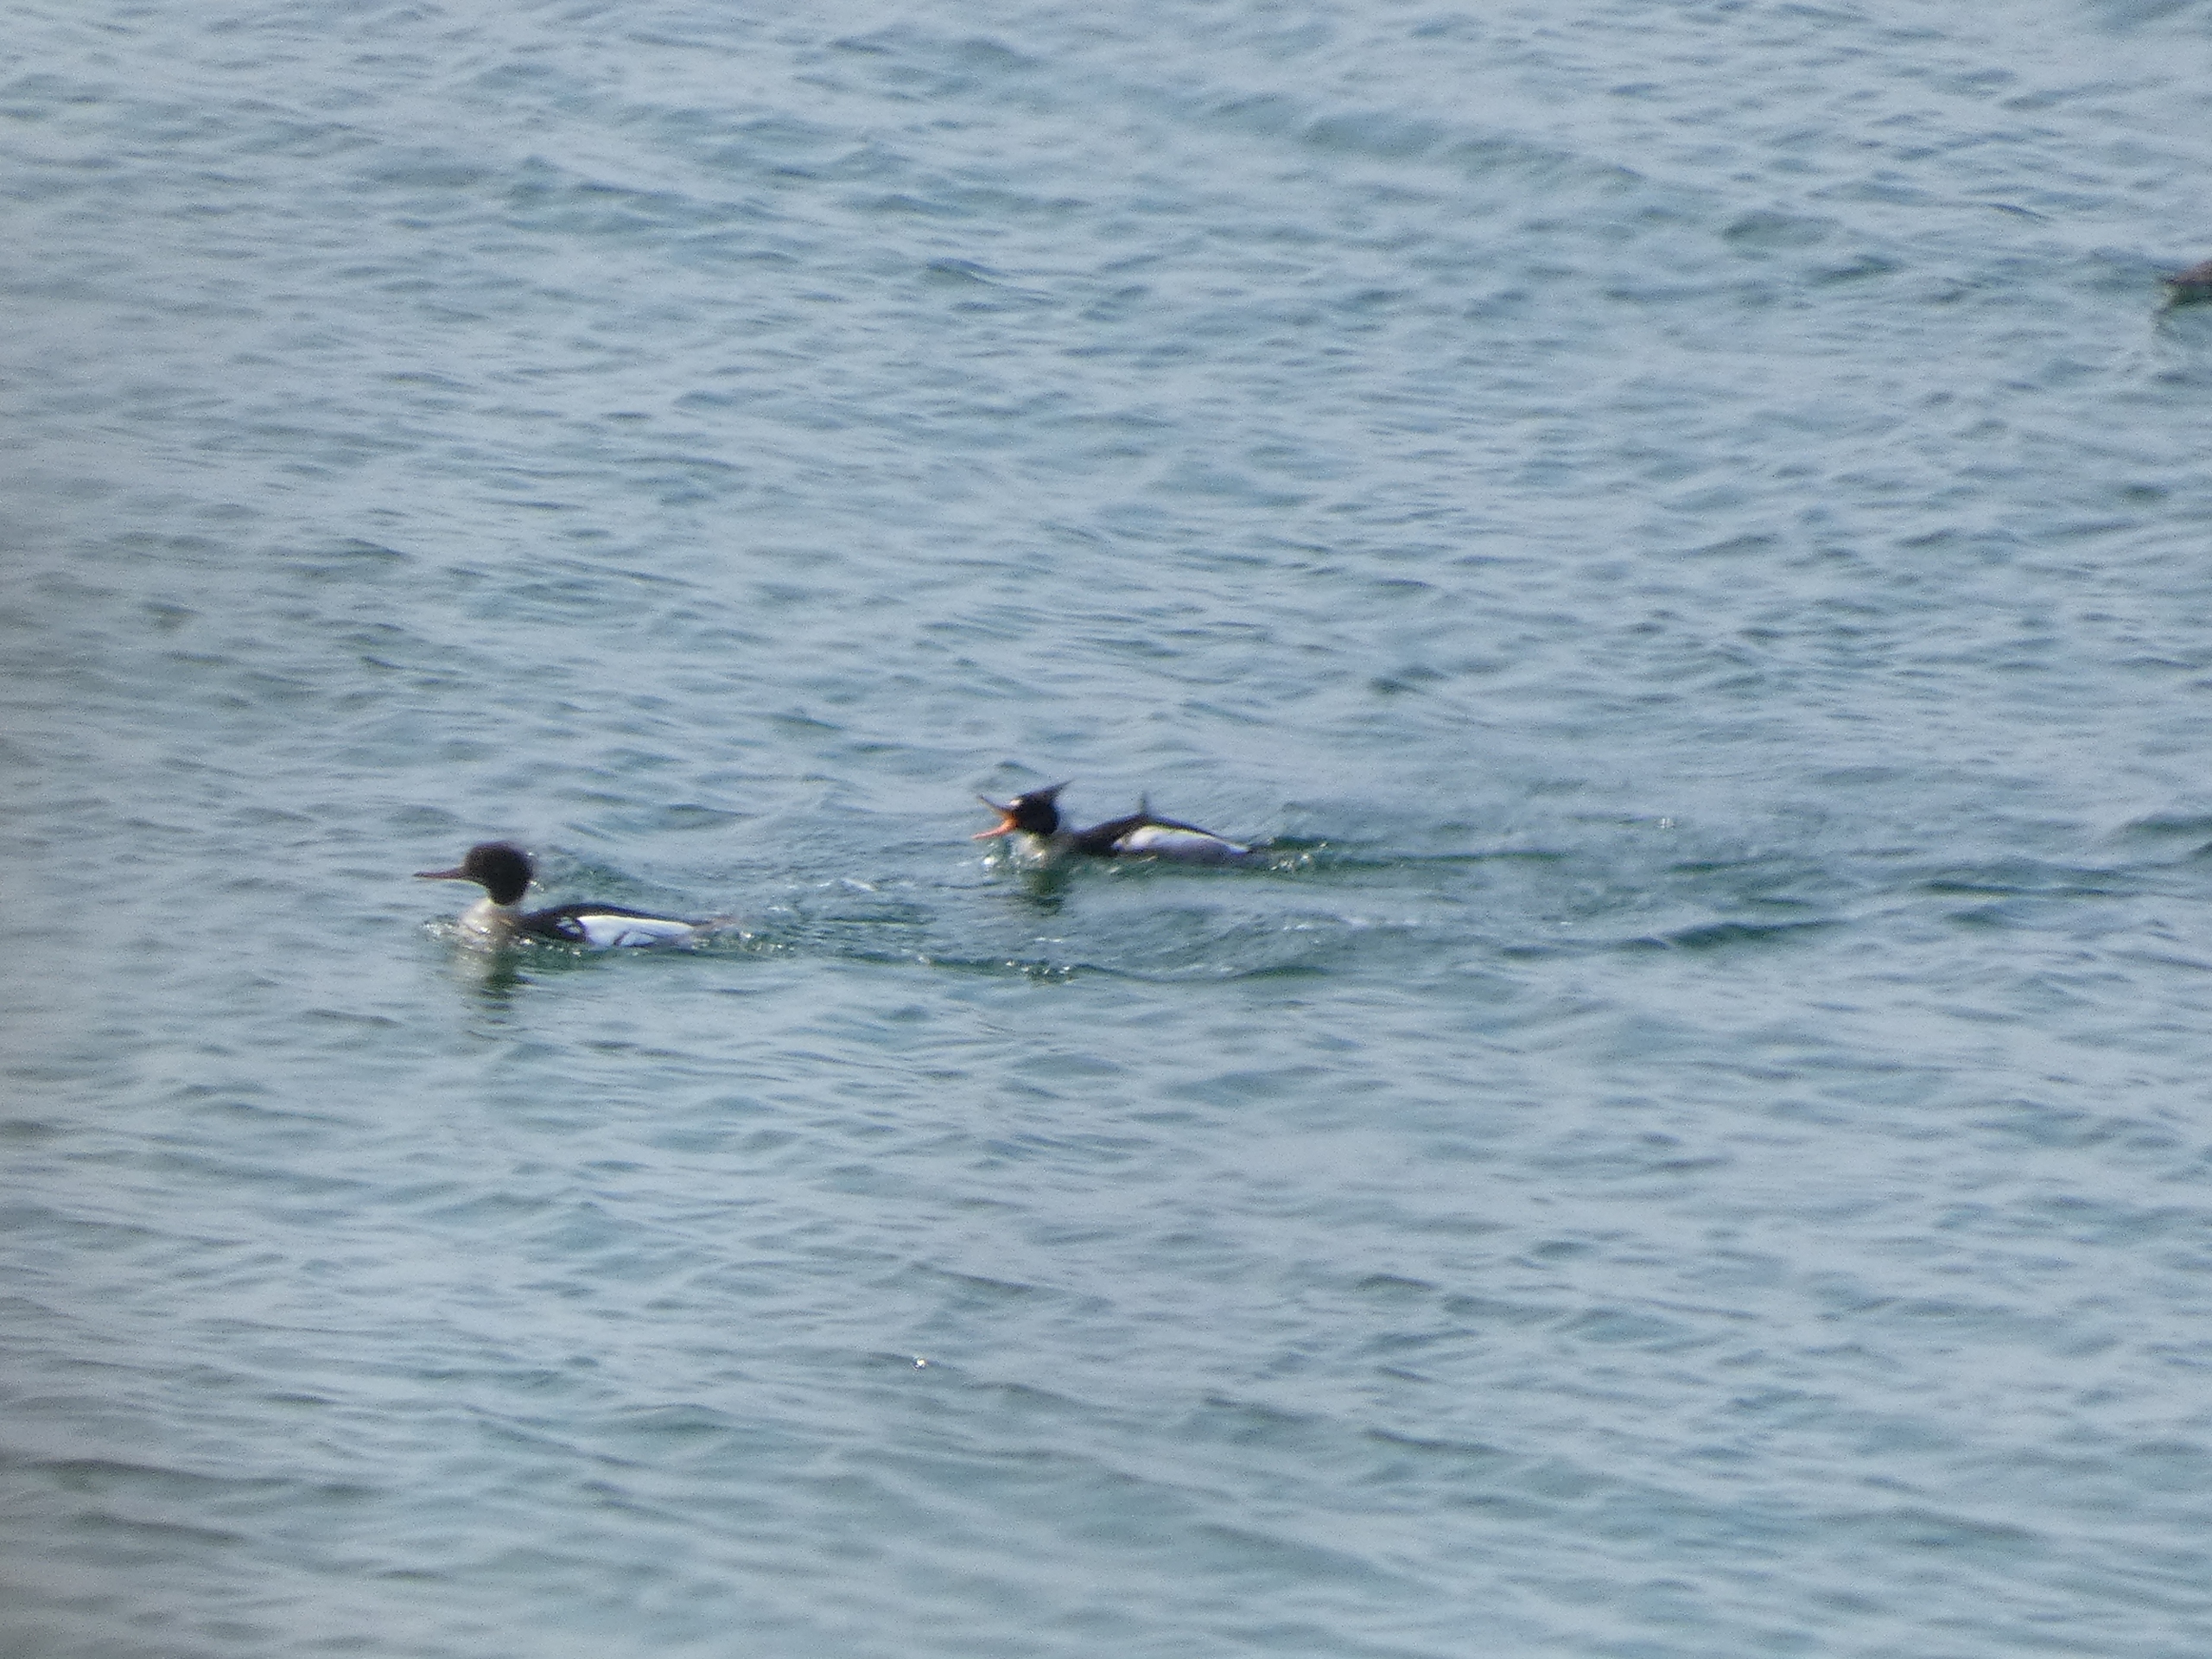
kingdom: Animalia
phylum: Chordata
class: Aves
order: Anseriformes
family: Anatidae
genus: Mergus
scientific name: Mergus serrator
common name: Toppet skallesluger
